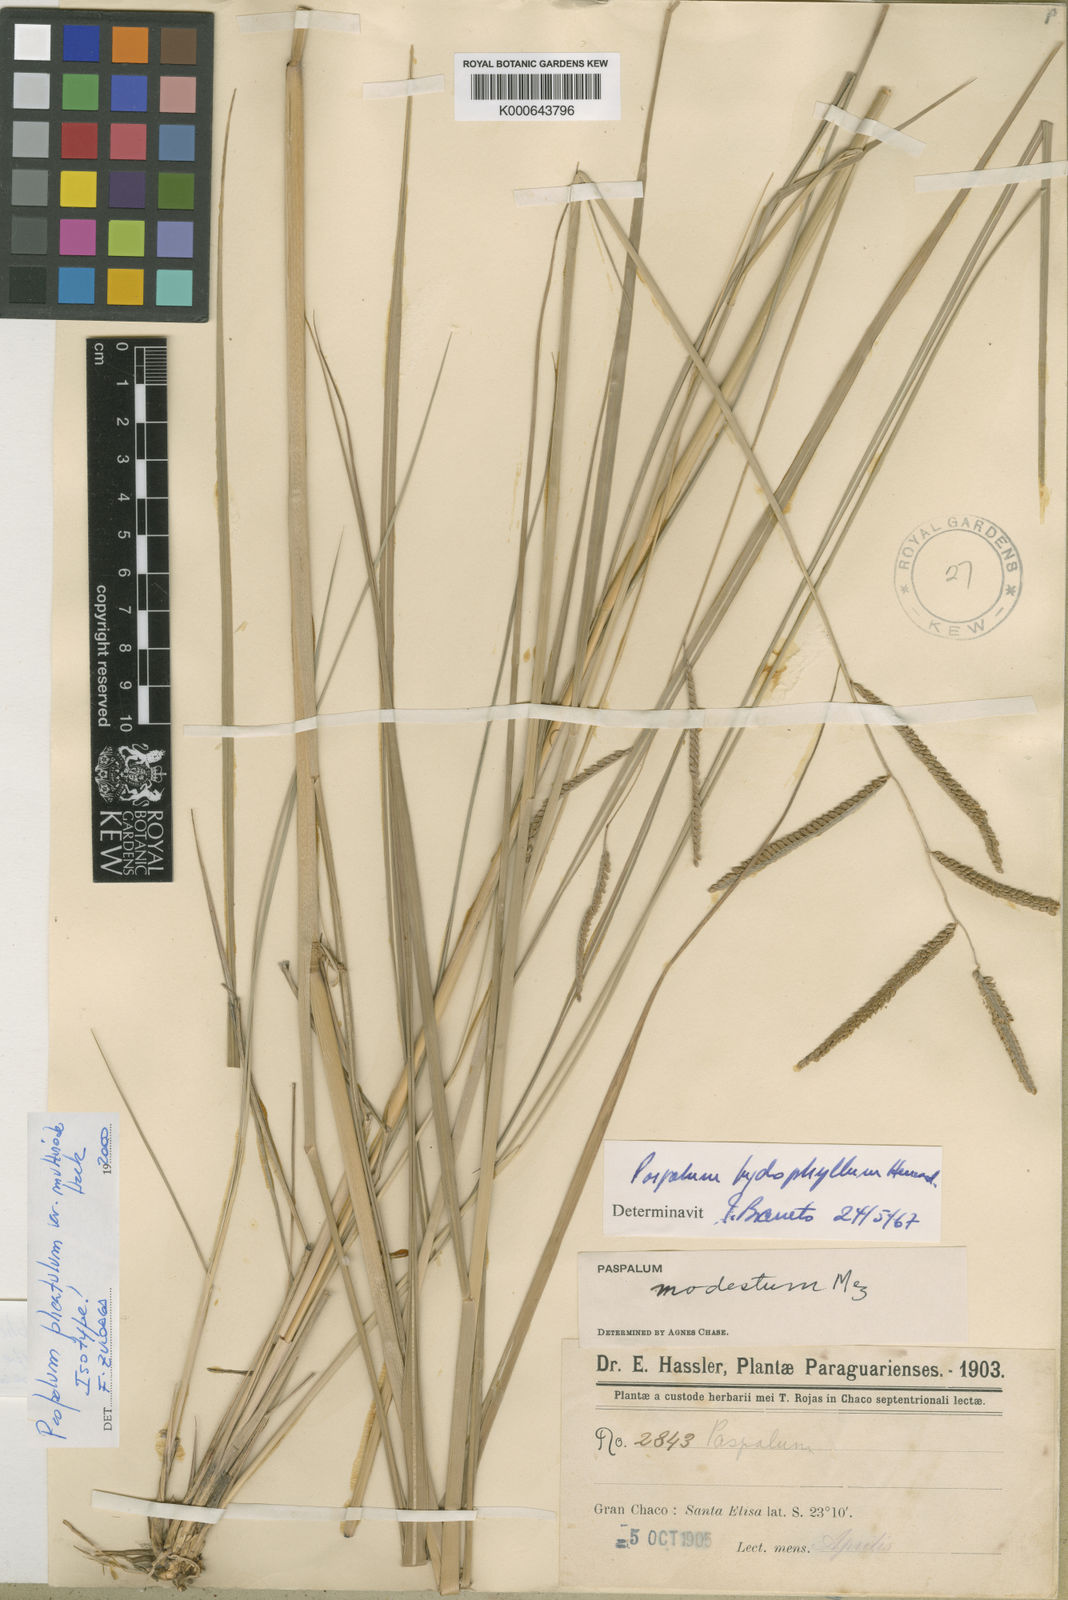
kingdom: Plantae
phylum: Tracheophyta
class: Liliopsida
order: Poales
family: Poaceae
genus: Paspalum
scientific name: Paspalum wrightii
